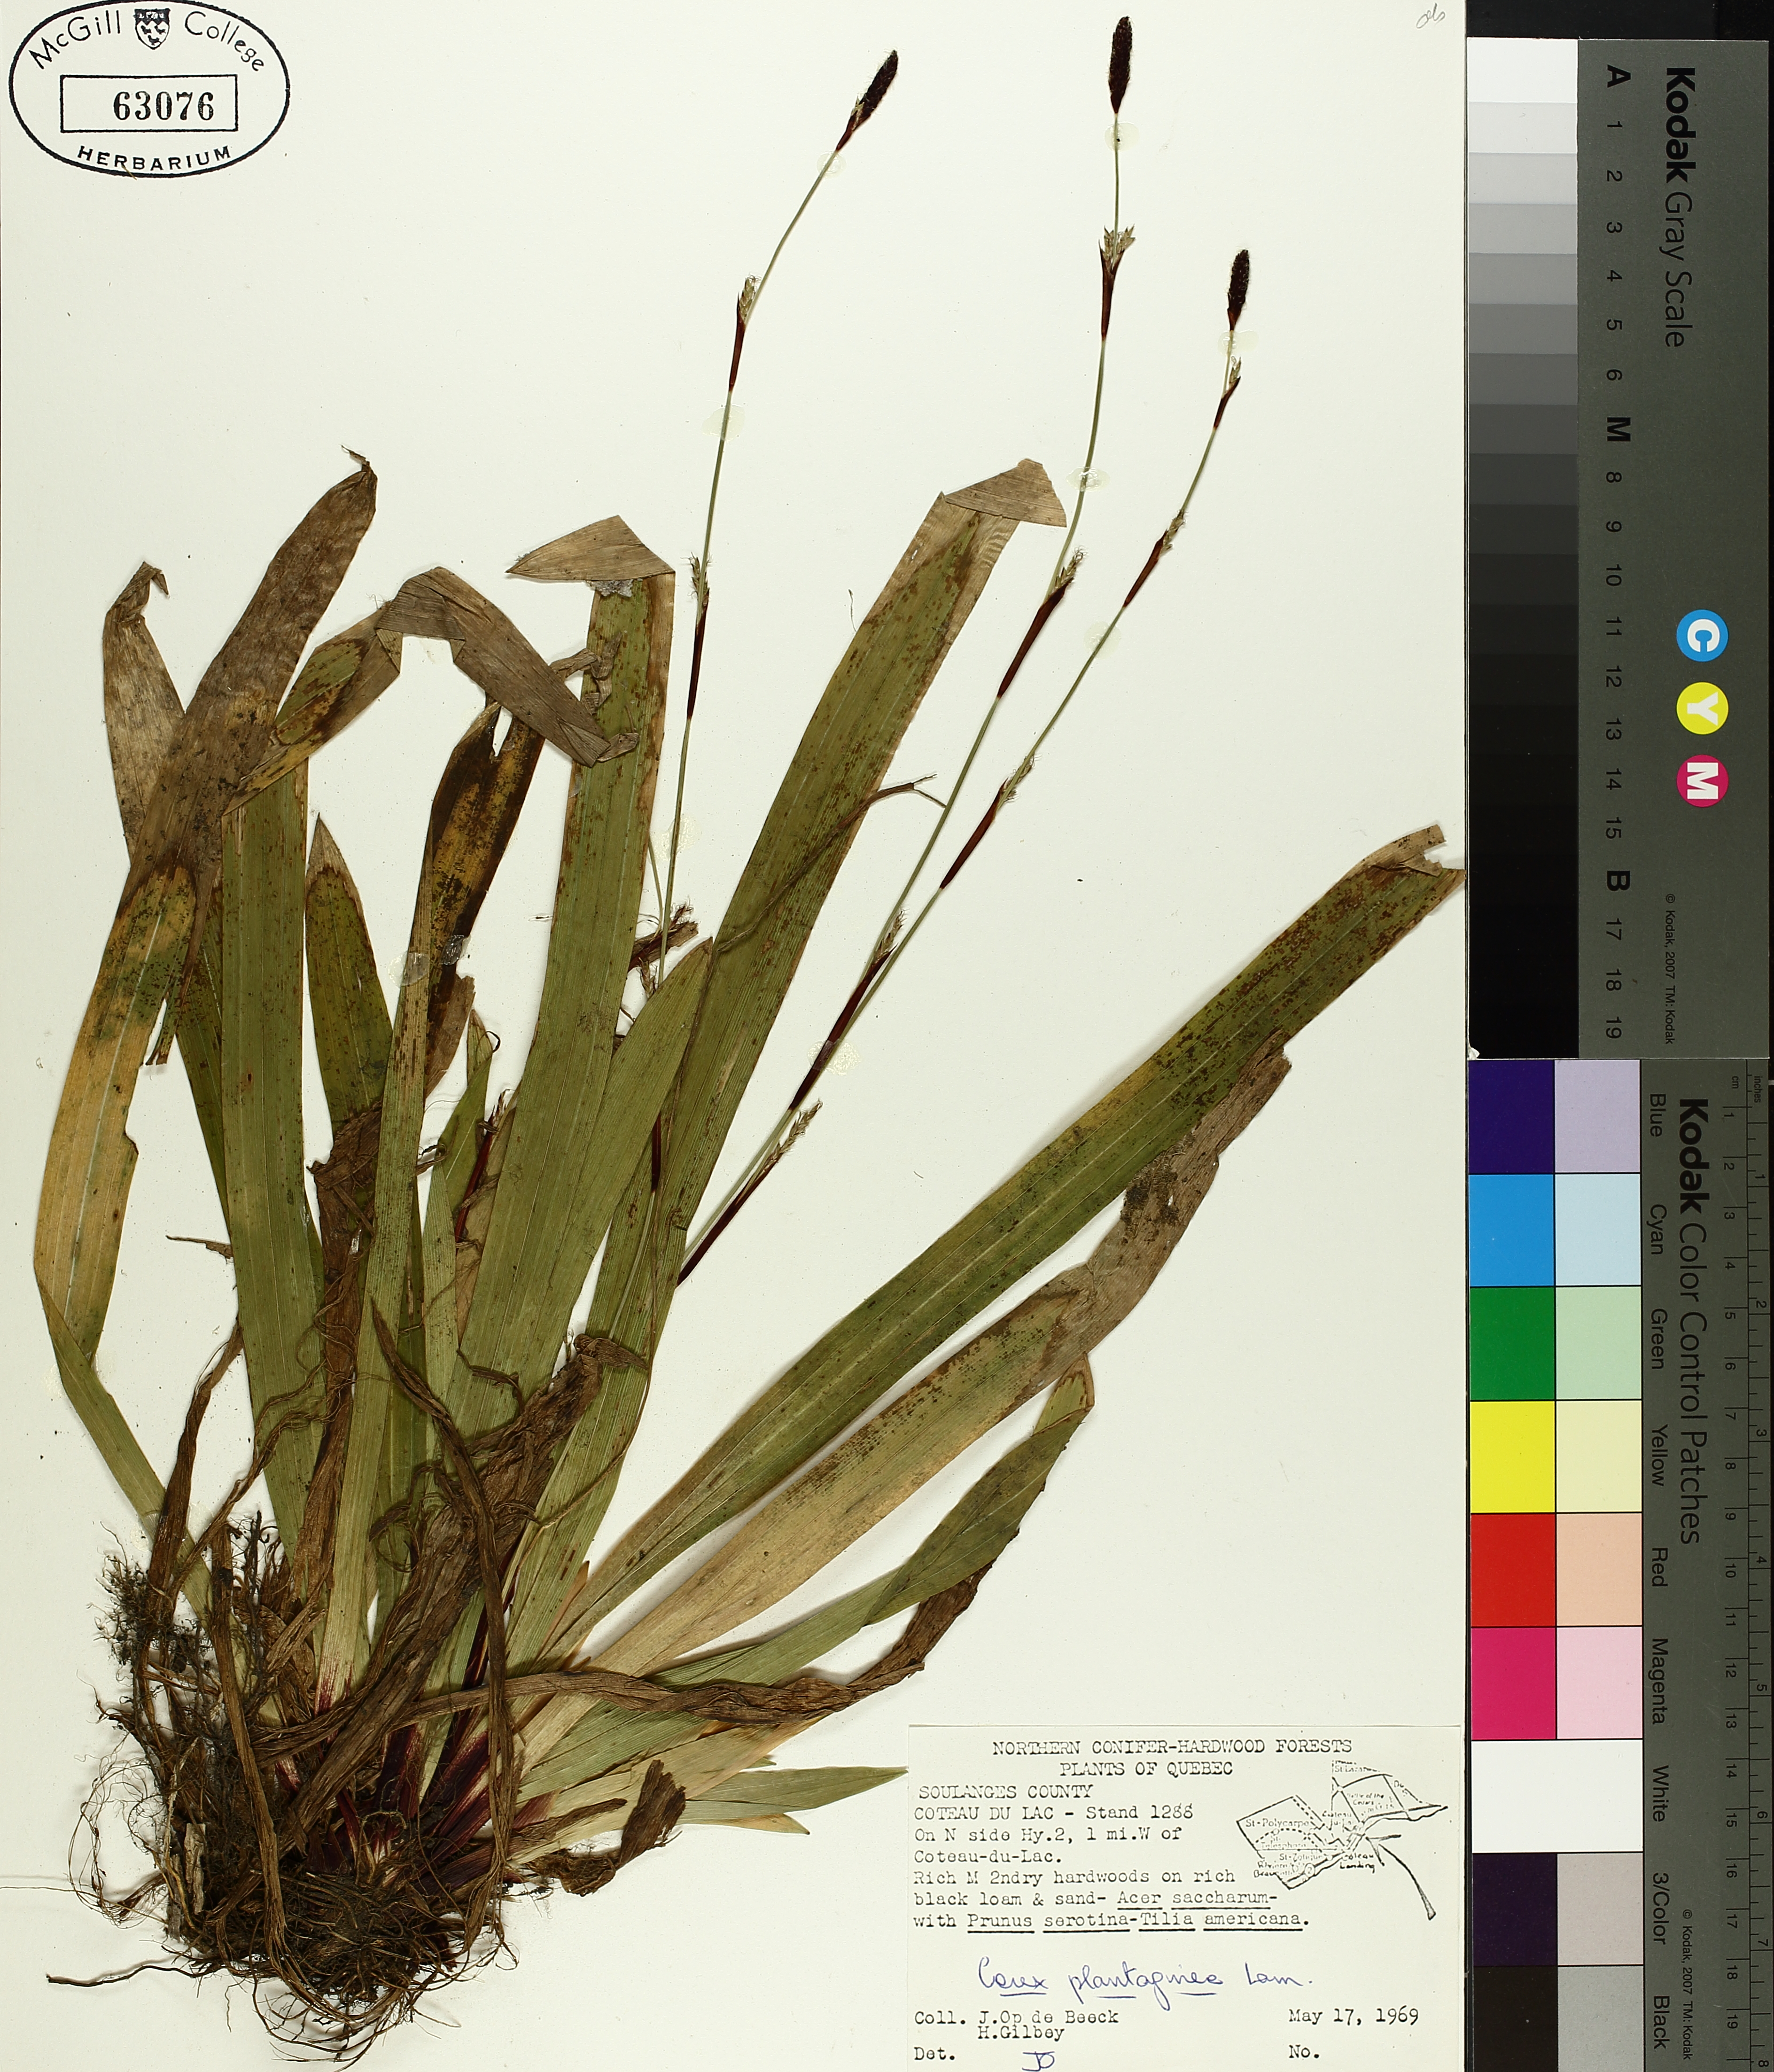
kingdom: Plantae
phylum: Tracheophyta
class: Liliopsida
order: Poales
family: Cyperaceae
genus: Carex
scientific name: Carex plantaginea
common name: Plantain-leaved sedge
